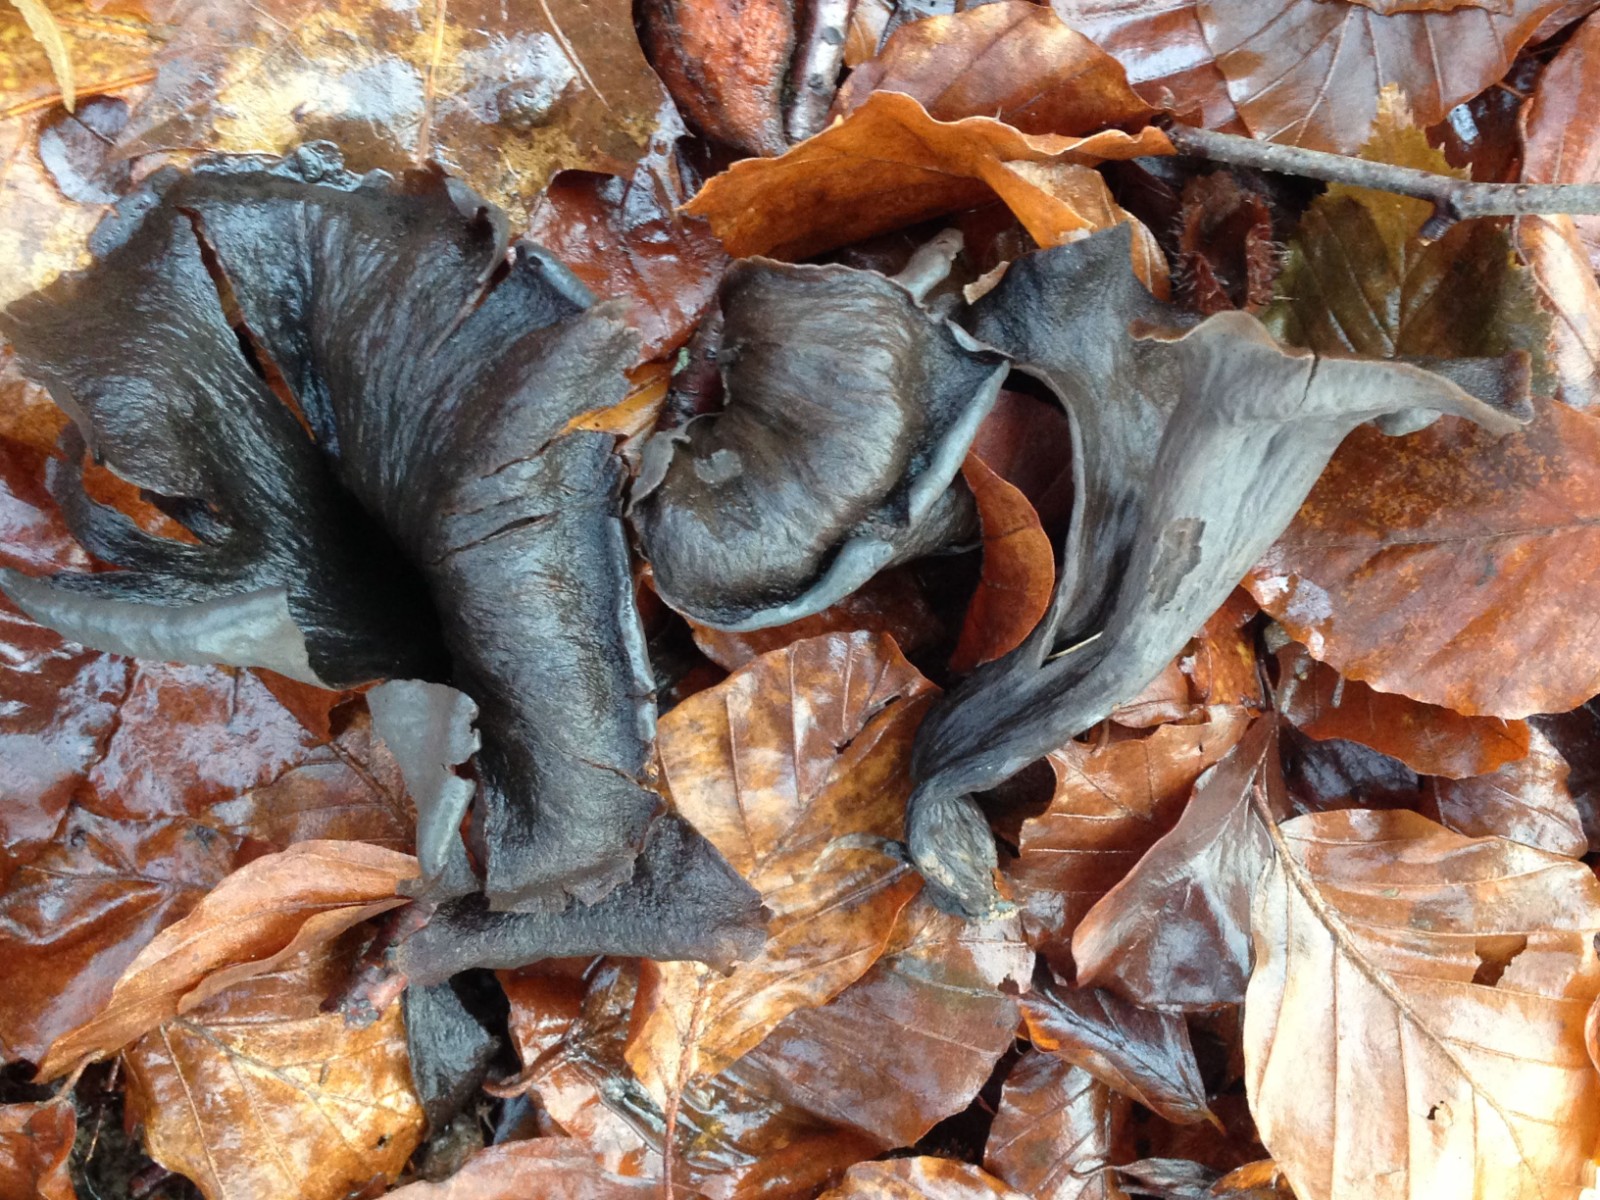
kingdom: Fungi
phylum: Basidiomycota
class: Agaricomycetes
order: Cantharellales
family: Hydnaceae
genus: Craterellus
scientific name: Craterellus cornucopioides
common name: trompetsvamp
